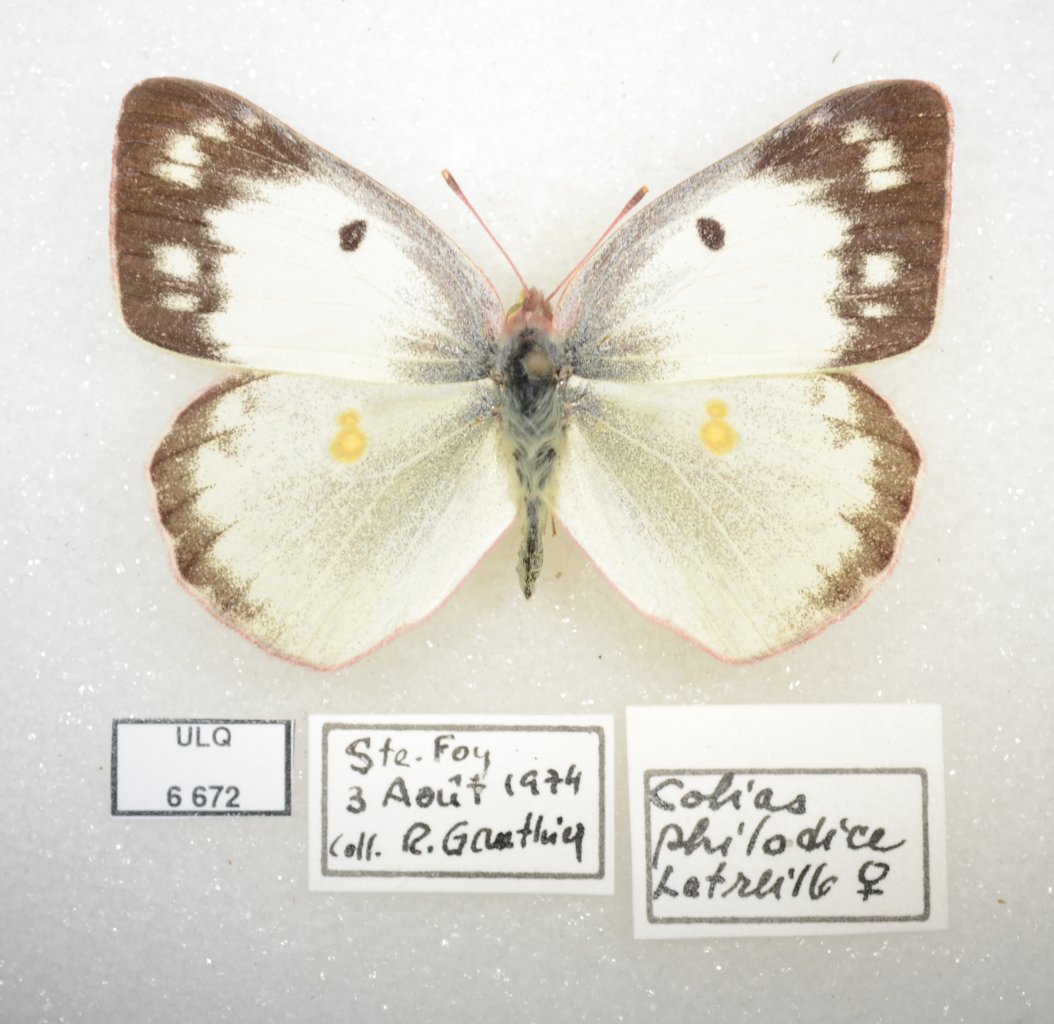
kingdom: Animalia
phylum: Arthropoda
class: Insecta
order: Lepidoptera
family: Pieridae
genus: Colias
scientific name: Colias philodice
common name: Clouded Sulphur
